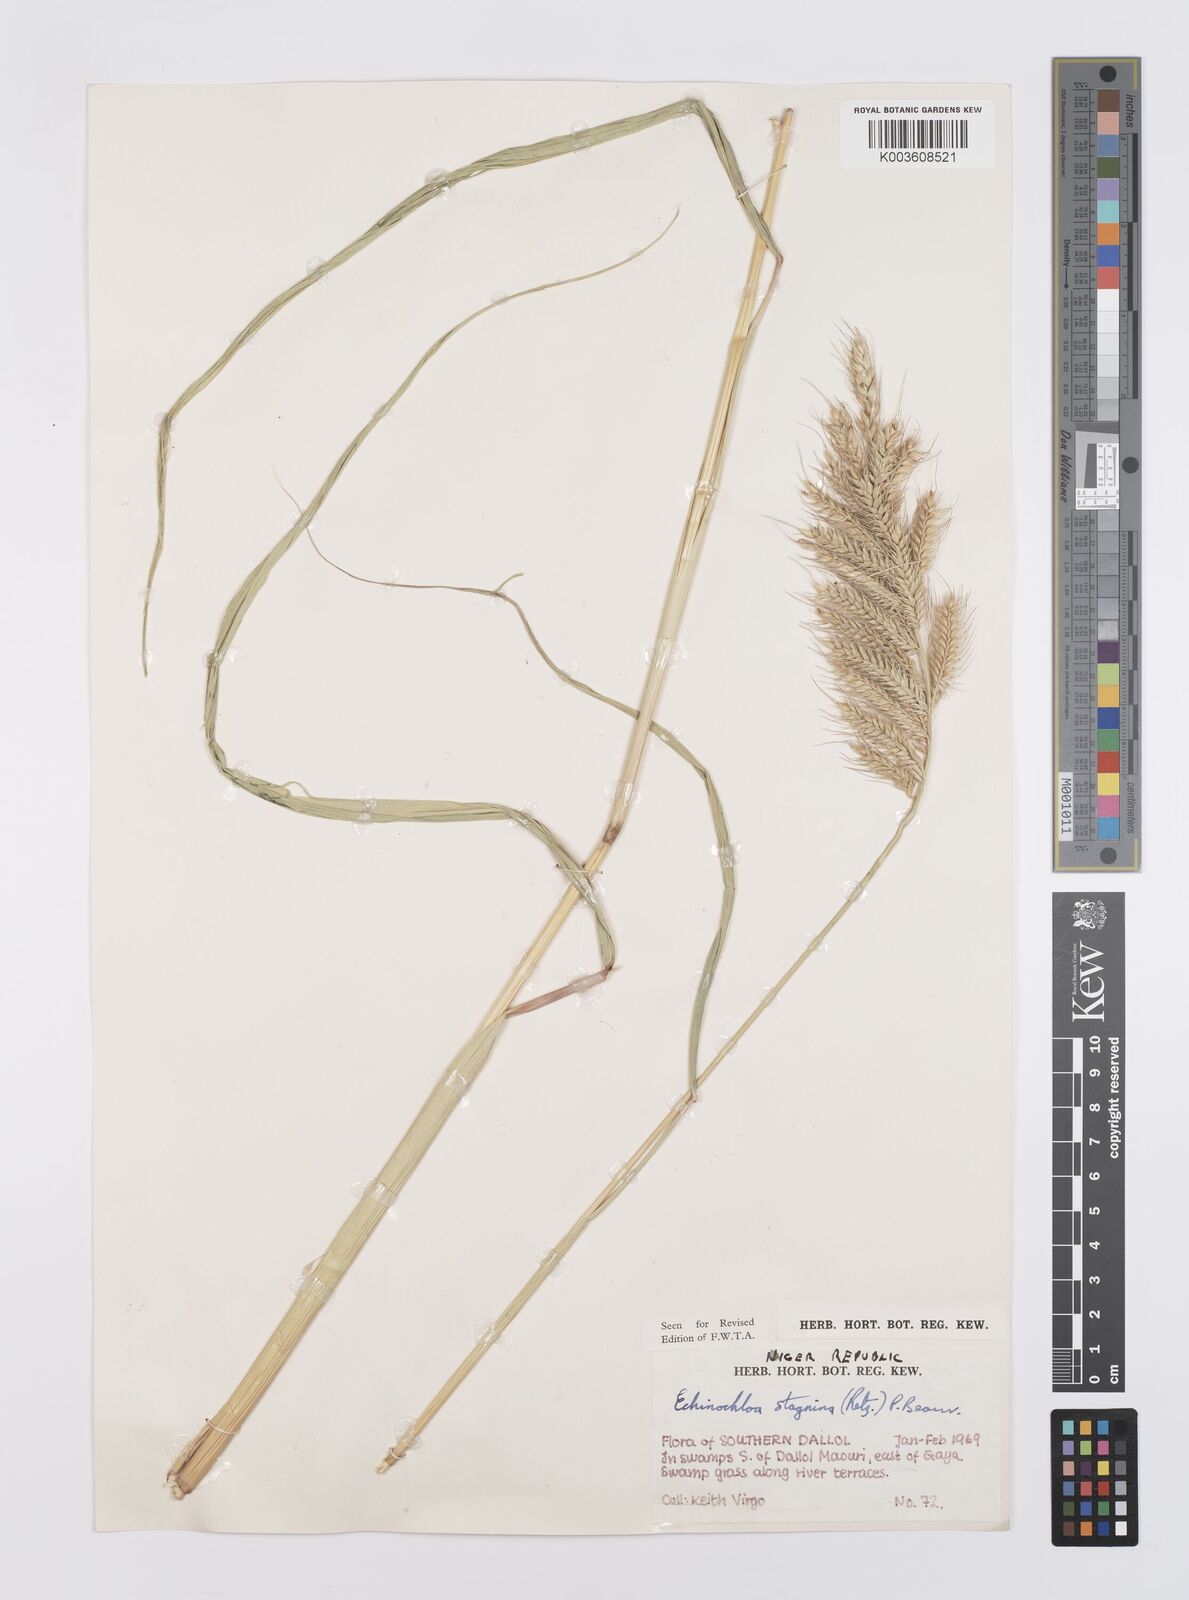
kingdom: Plantae
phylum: Tracheophyta
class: Liliopsida
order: Poales
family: Poaceae
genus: Echinochloa
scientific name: Echinochloa stagnina
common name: Burgu grass
